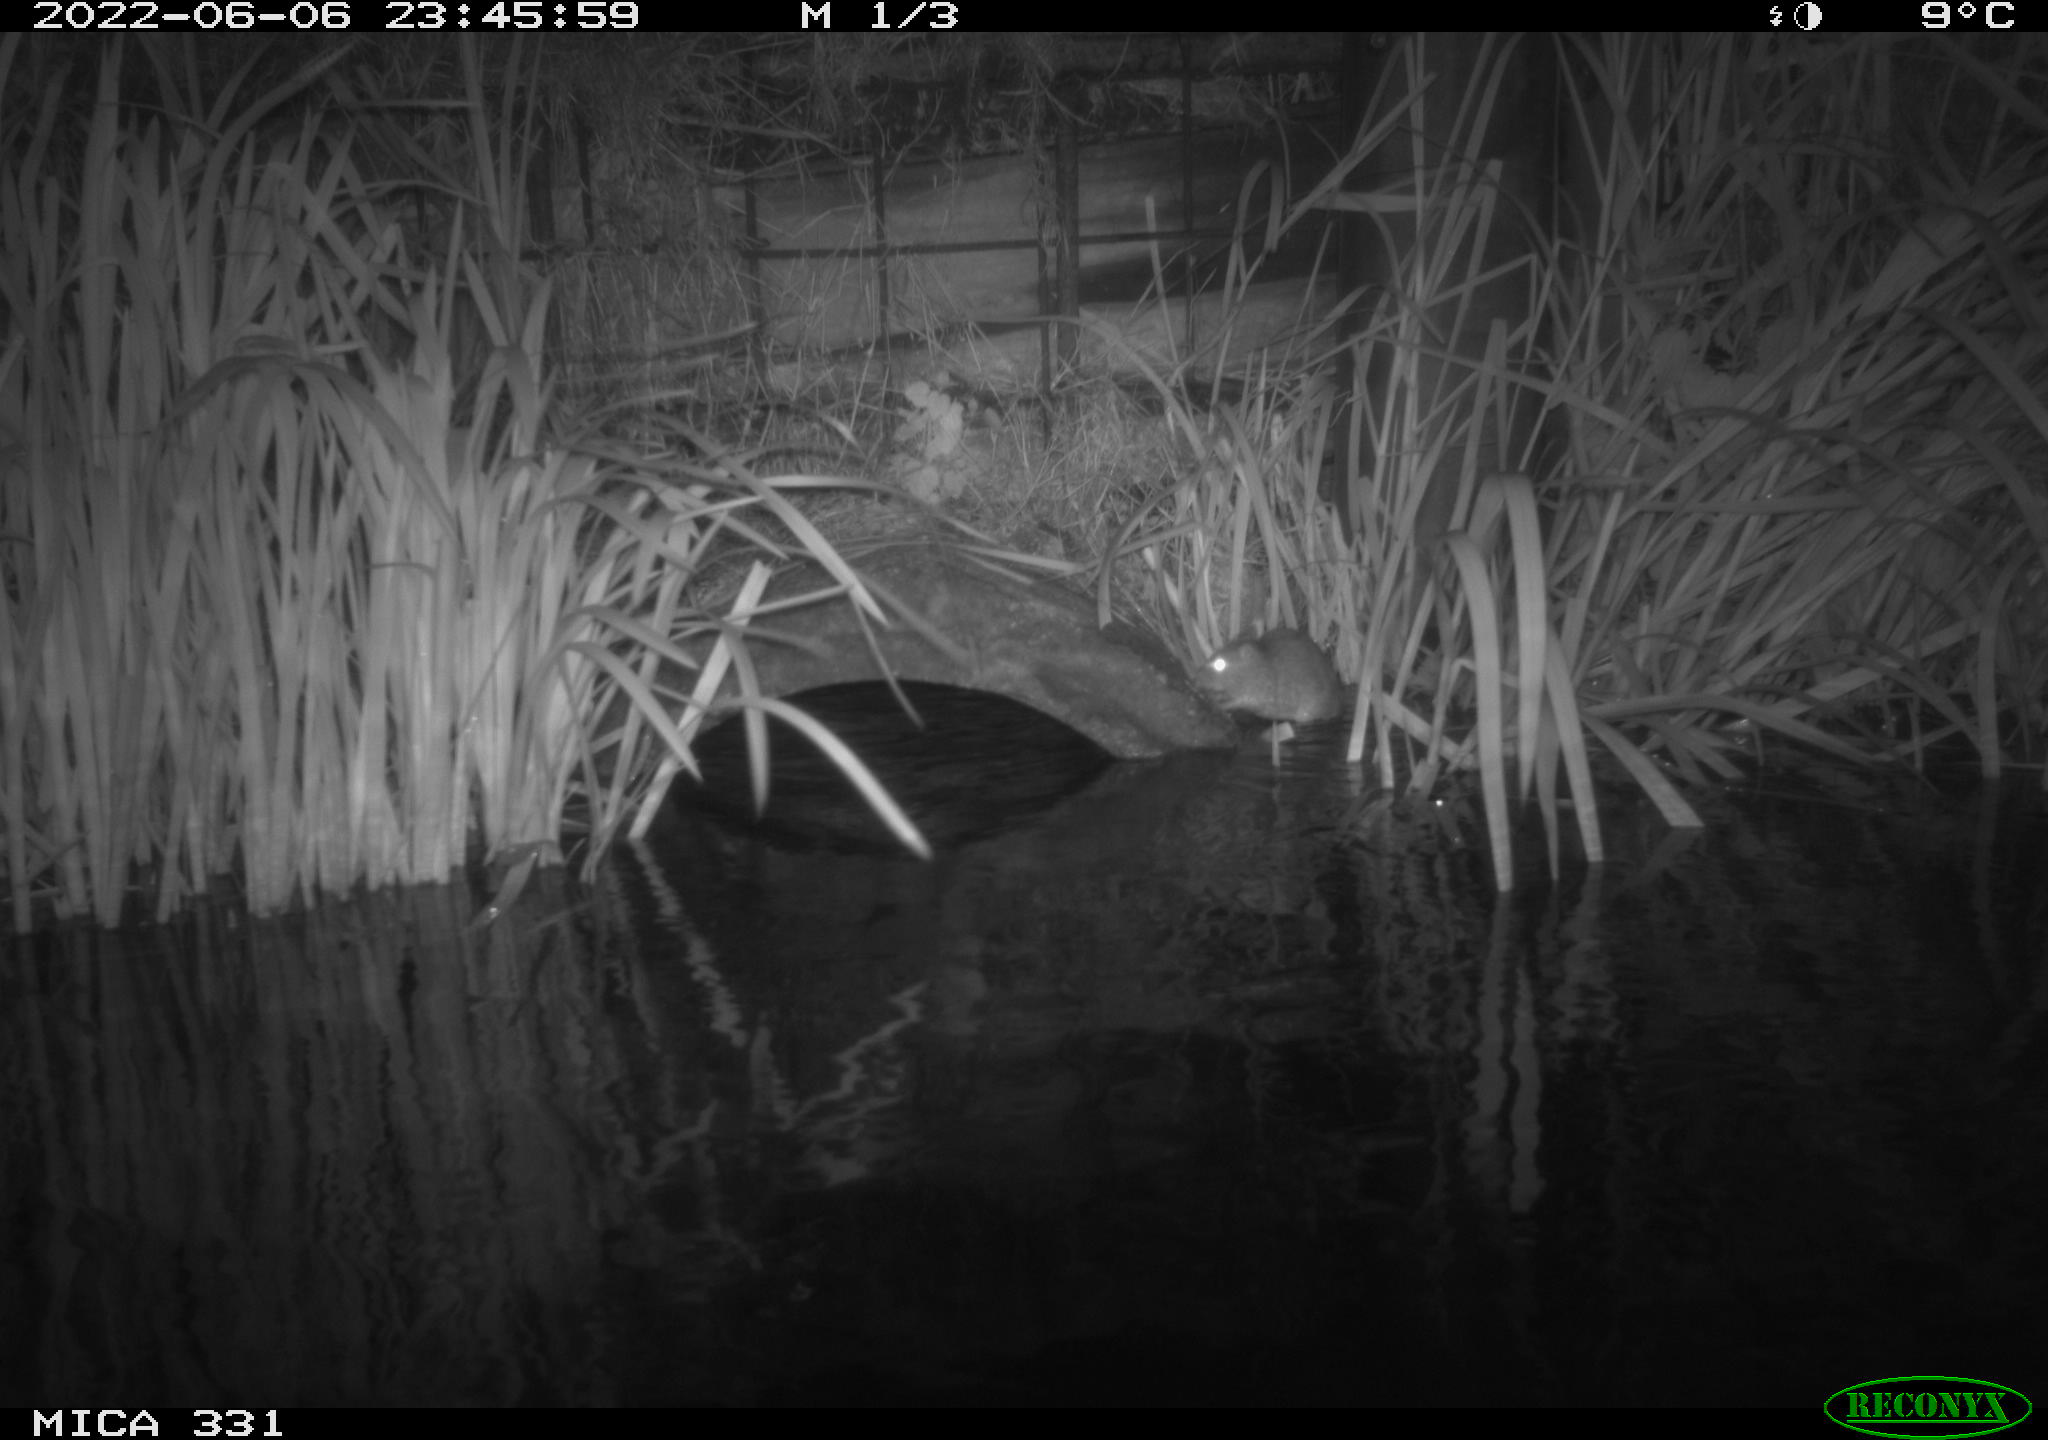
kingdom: Animalia
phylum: Chordata
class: Mammalia
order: Rodentia
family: Muridae
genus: Rattus
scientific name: Rattus norvegicus
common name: Brown rat
